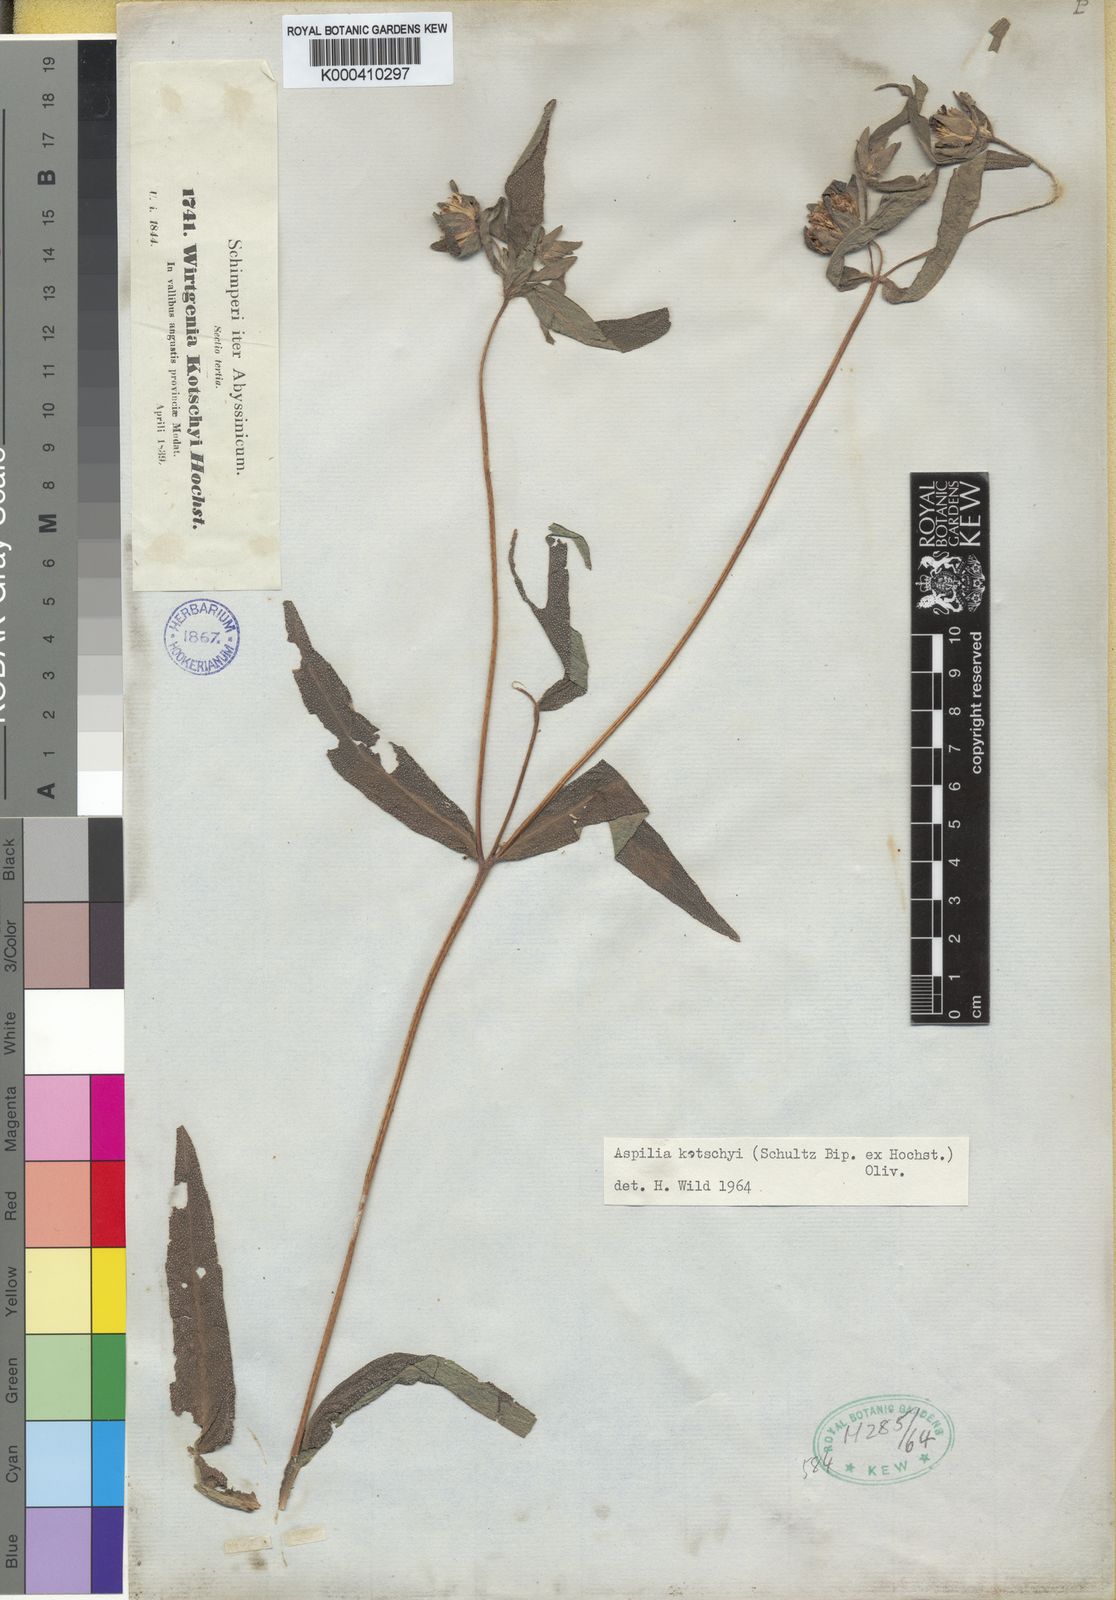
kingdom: Plantae
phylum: Tracheophyta
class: Magnoliopsida
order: Asterales
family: Asteraceae
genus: Aspilia
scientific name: Aspilia kotschyi
